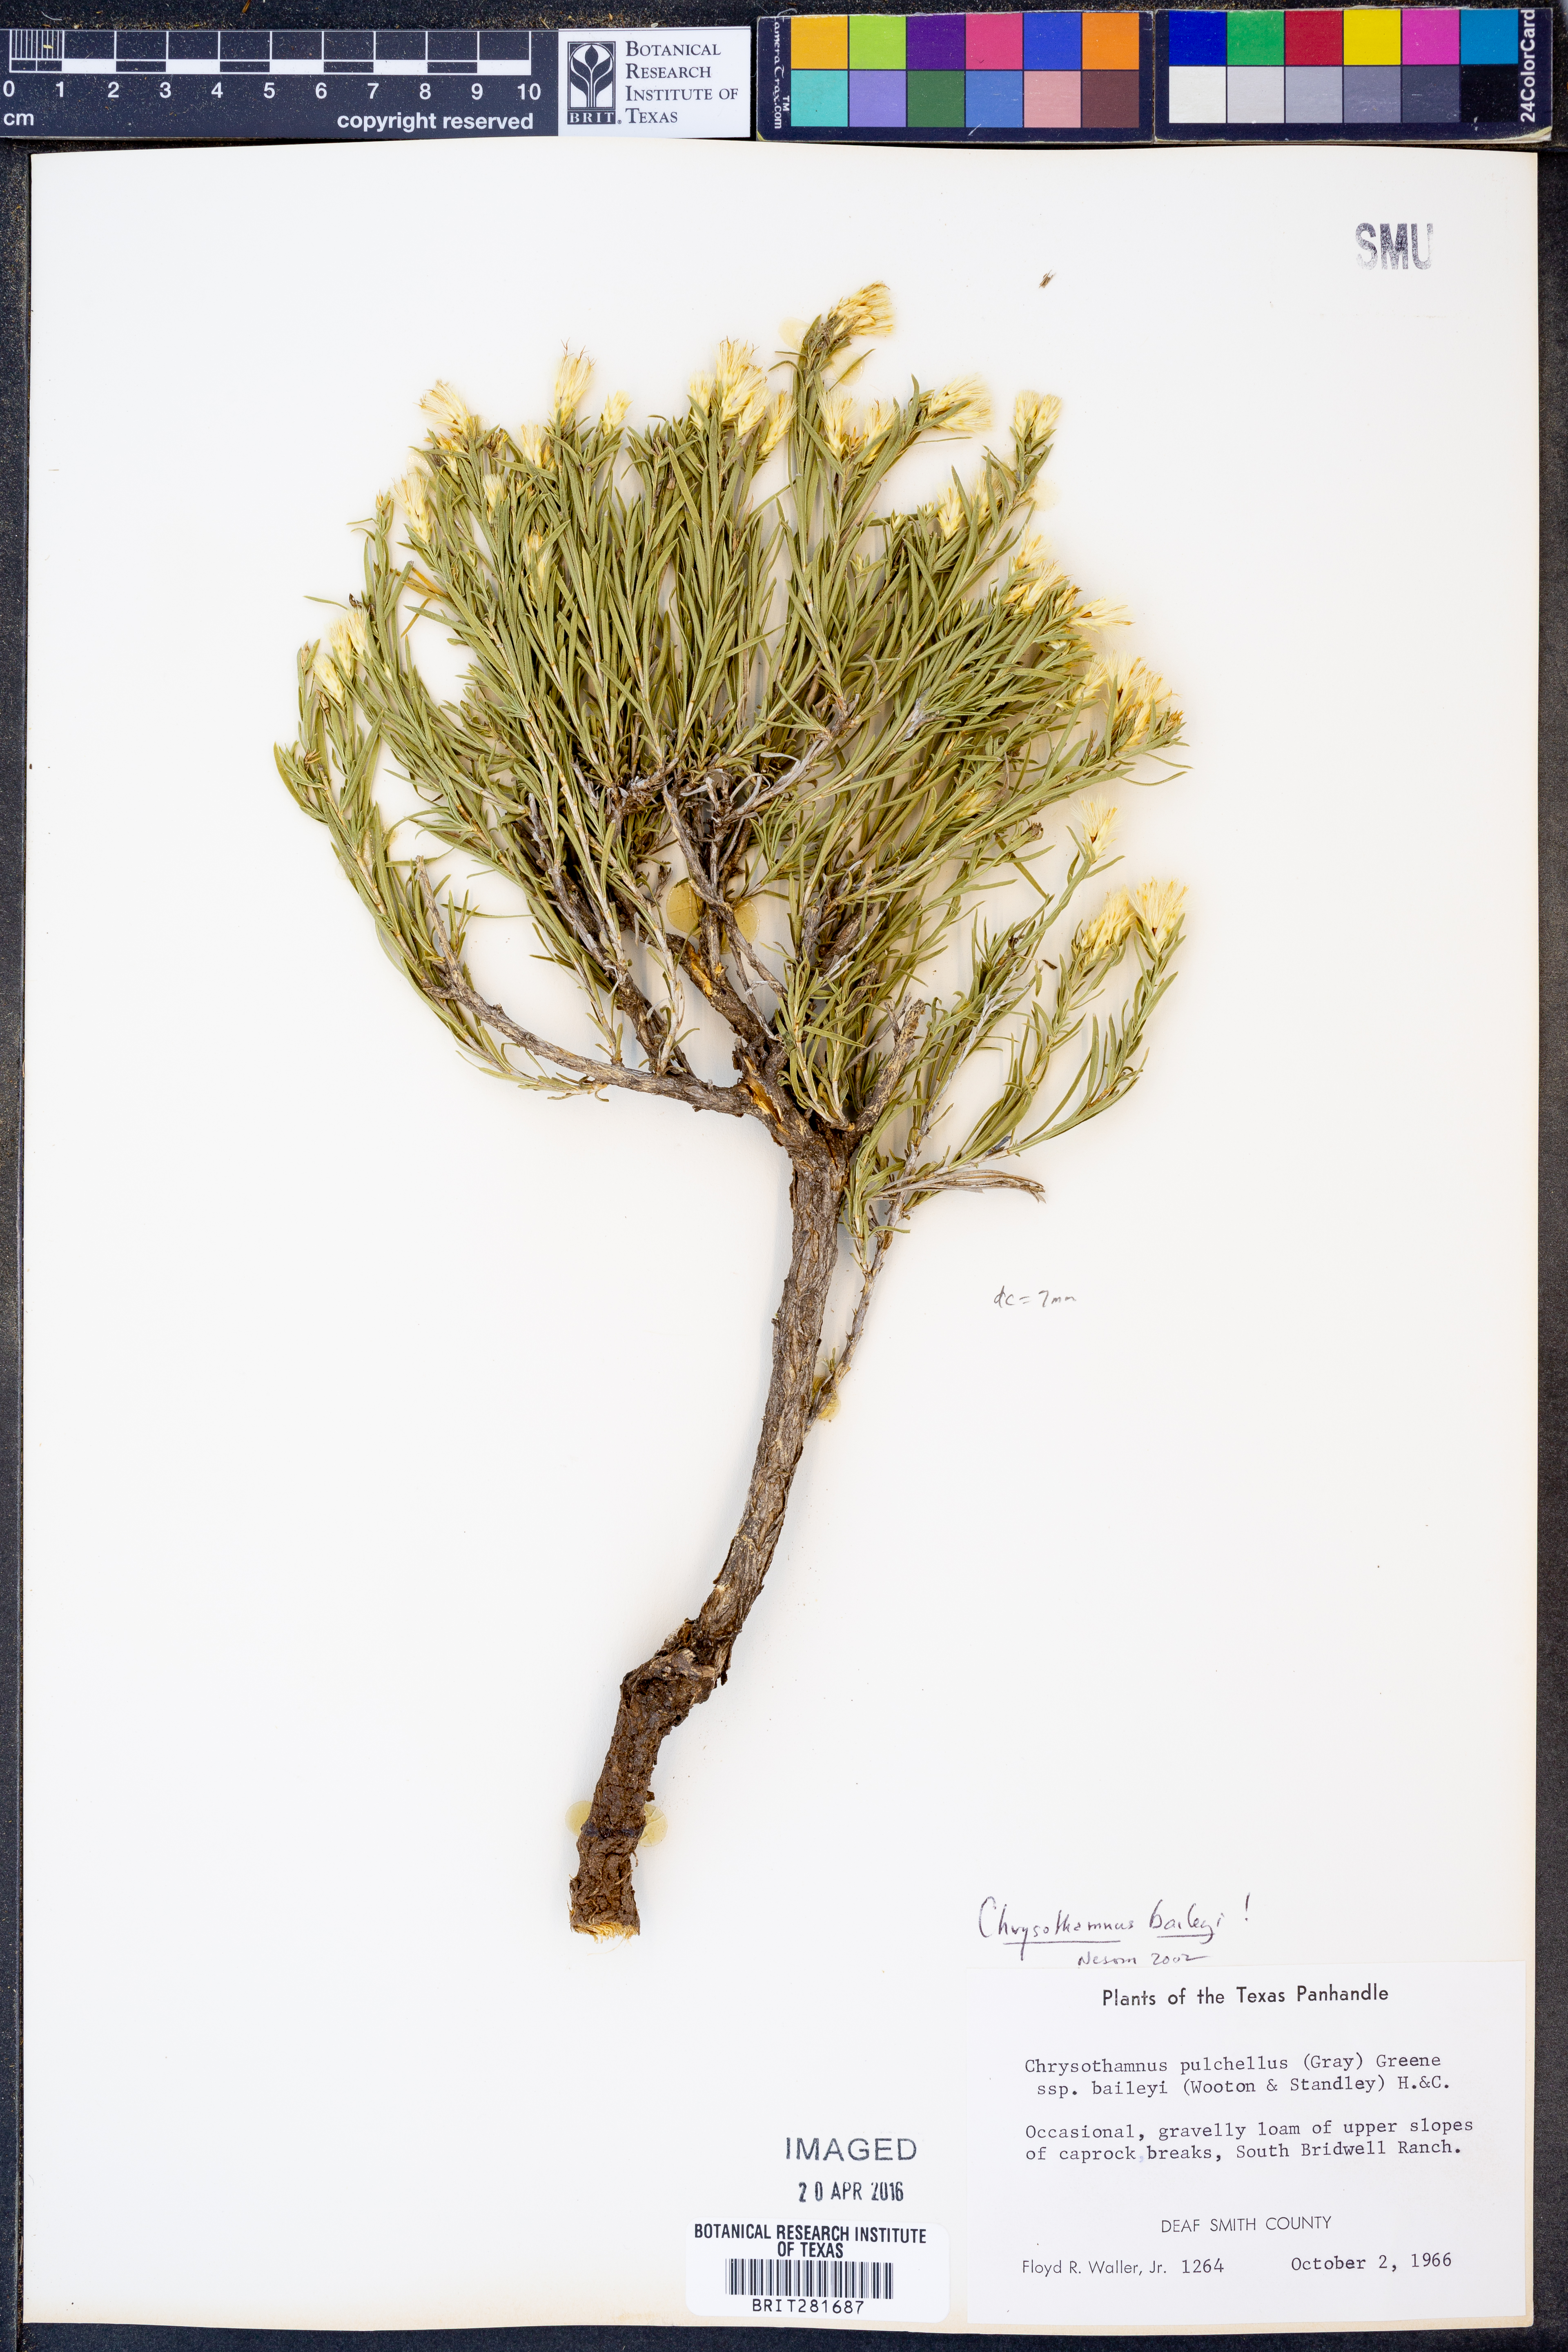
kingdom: Plantae
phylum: Tracheophyta
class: Magnoliopsida
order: Asterales
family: Asteraceae
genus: Lorandersonia
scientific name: Lorandersonia baileyi
